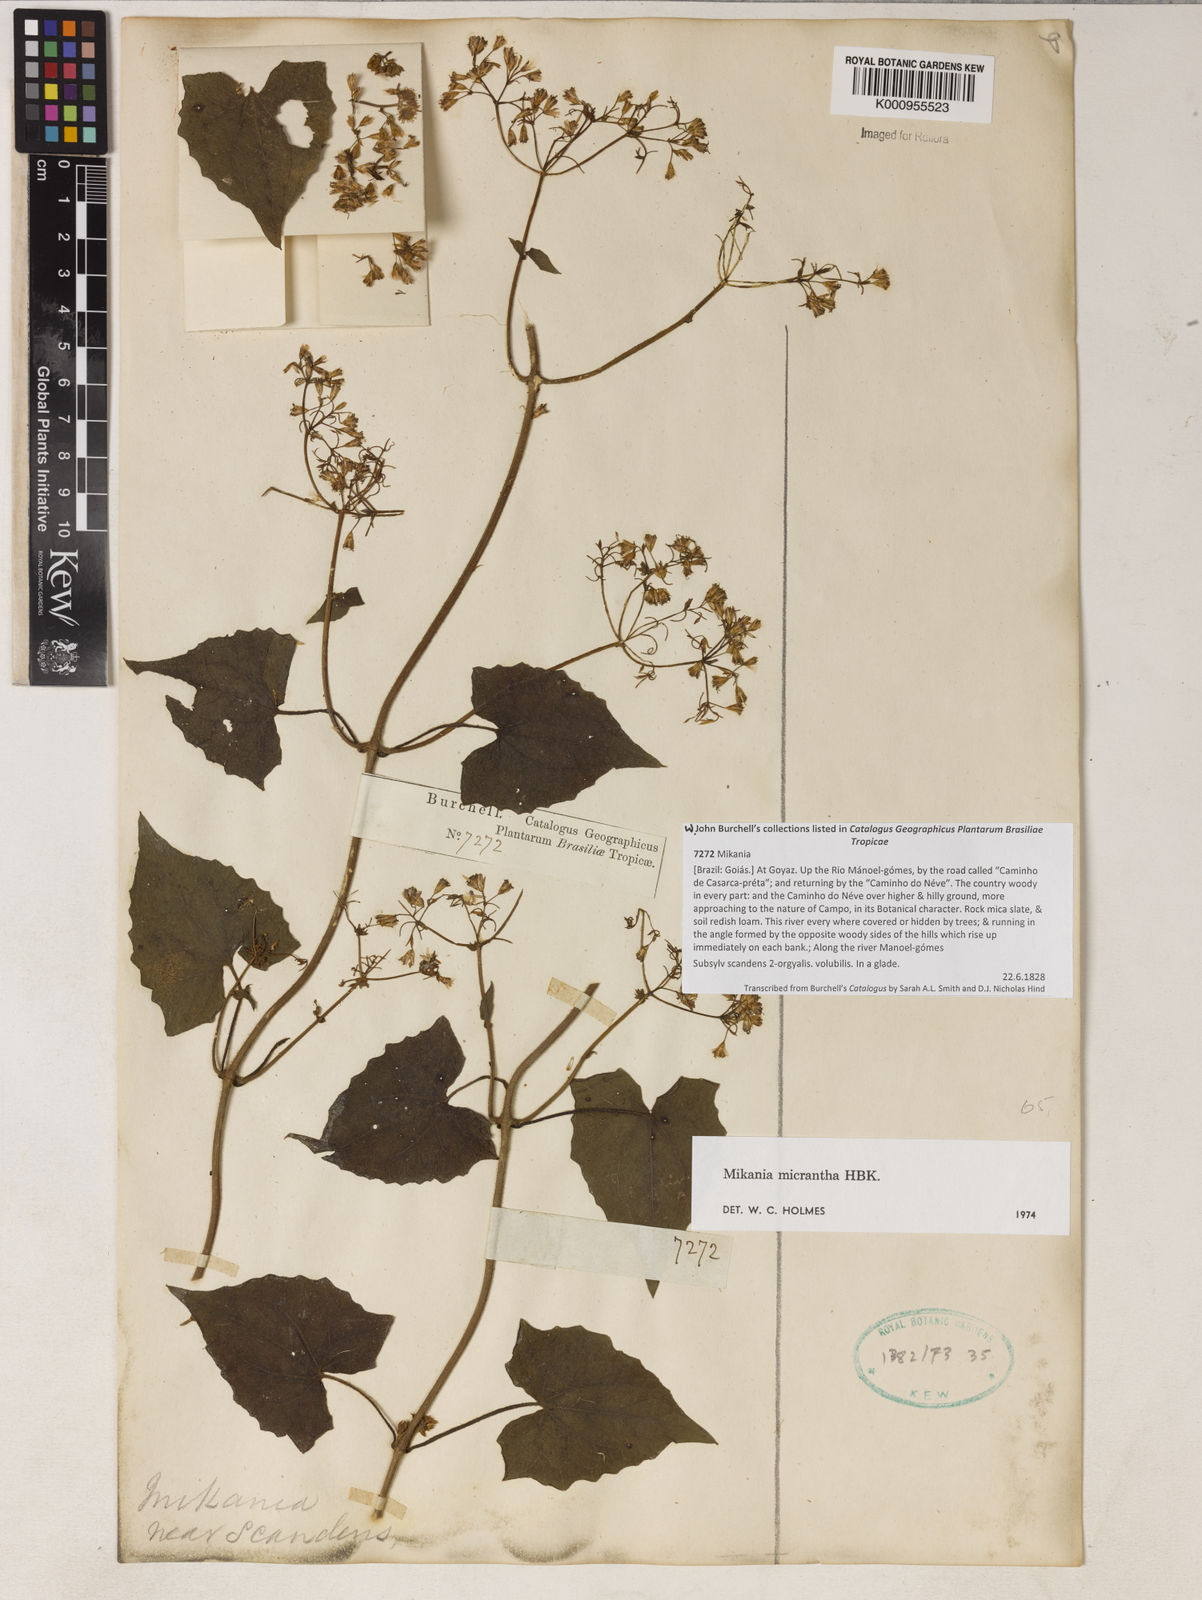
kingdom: Plantae
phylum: Tracheophyta
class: Magnoliopsida
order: Asterales
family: Asteraceae
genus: Mikania
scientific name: Mikania
